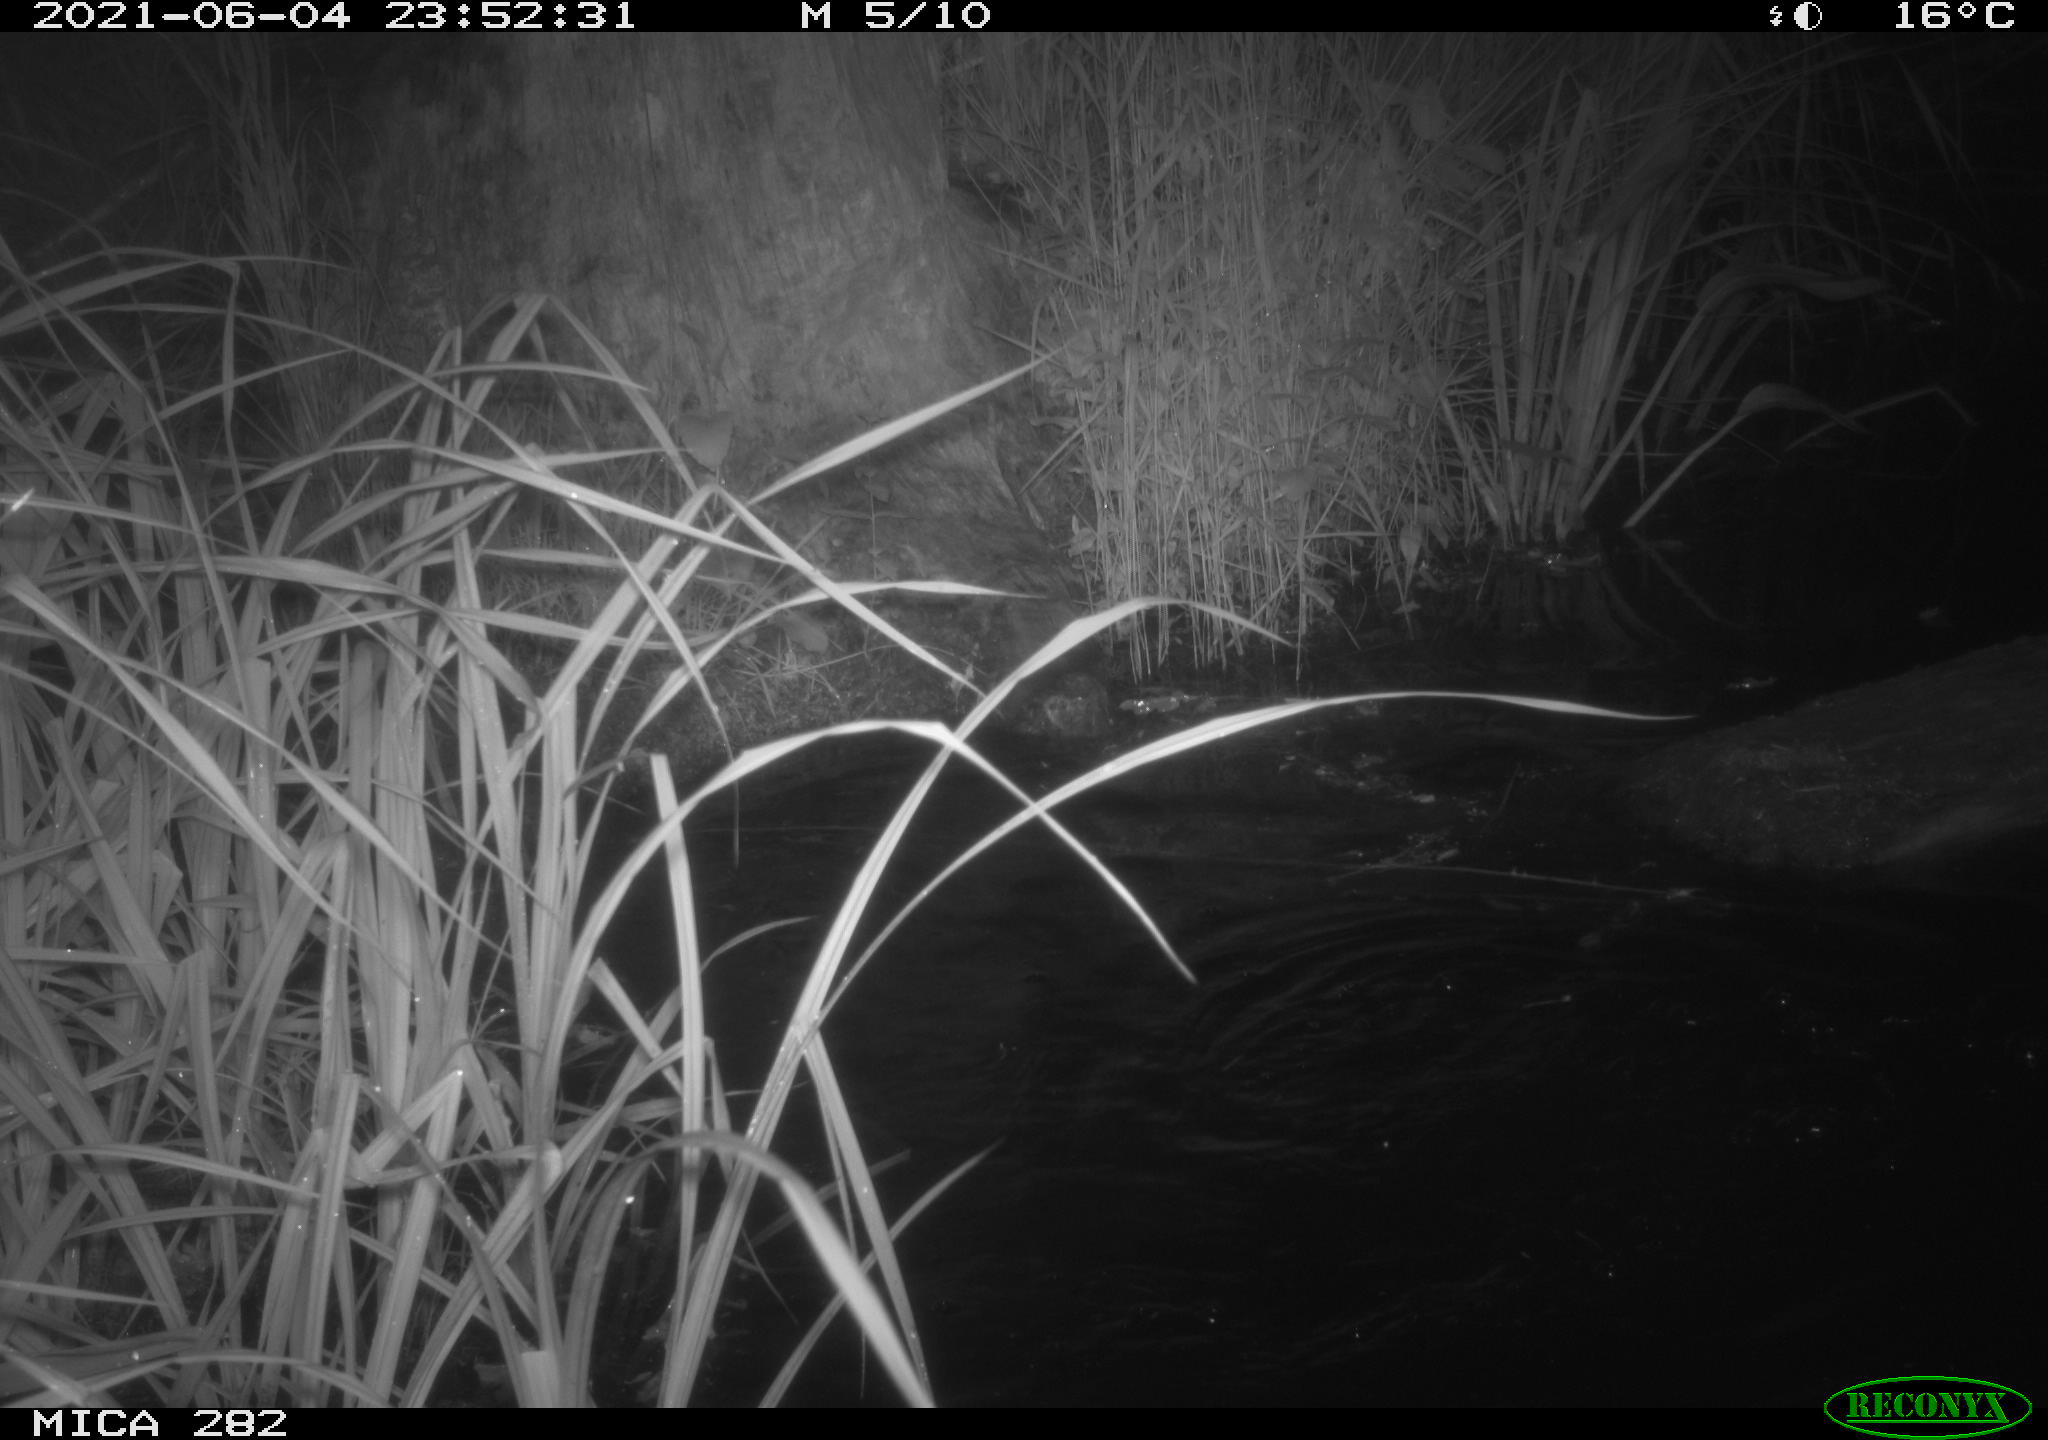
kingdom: Animalia
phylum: Chordata
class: Mammalia
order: Rodentia
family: Castoridae
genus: Castor
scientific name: Castor fiber
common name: Eurasian beaver
